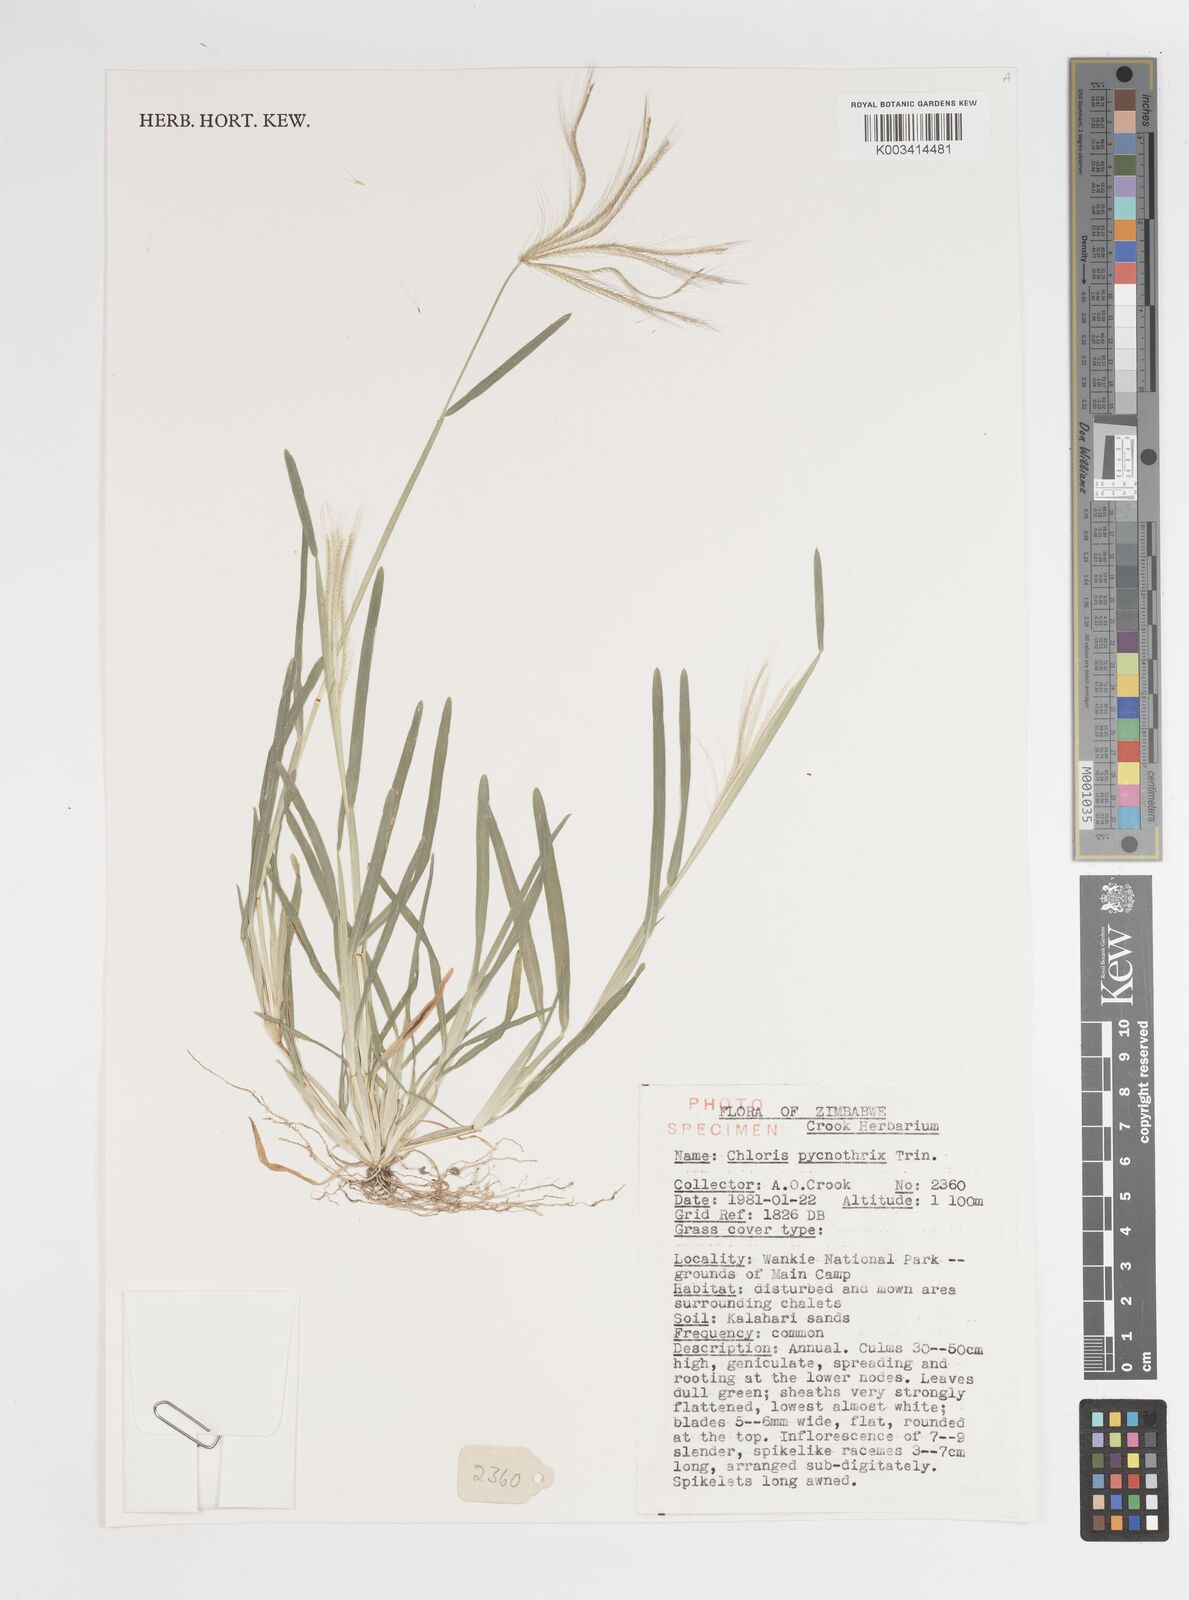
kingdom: Plantae
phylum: Tracheophyta
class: Liliopsida
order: Poales
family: Poaceae
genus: Chloris
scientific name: Chloris pycnothrix
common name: Spiderweb chloris
